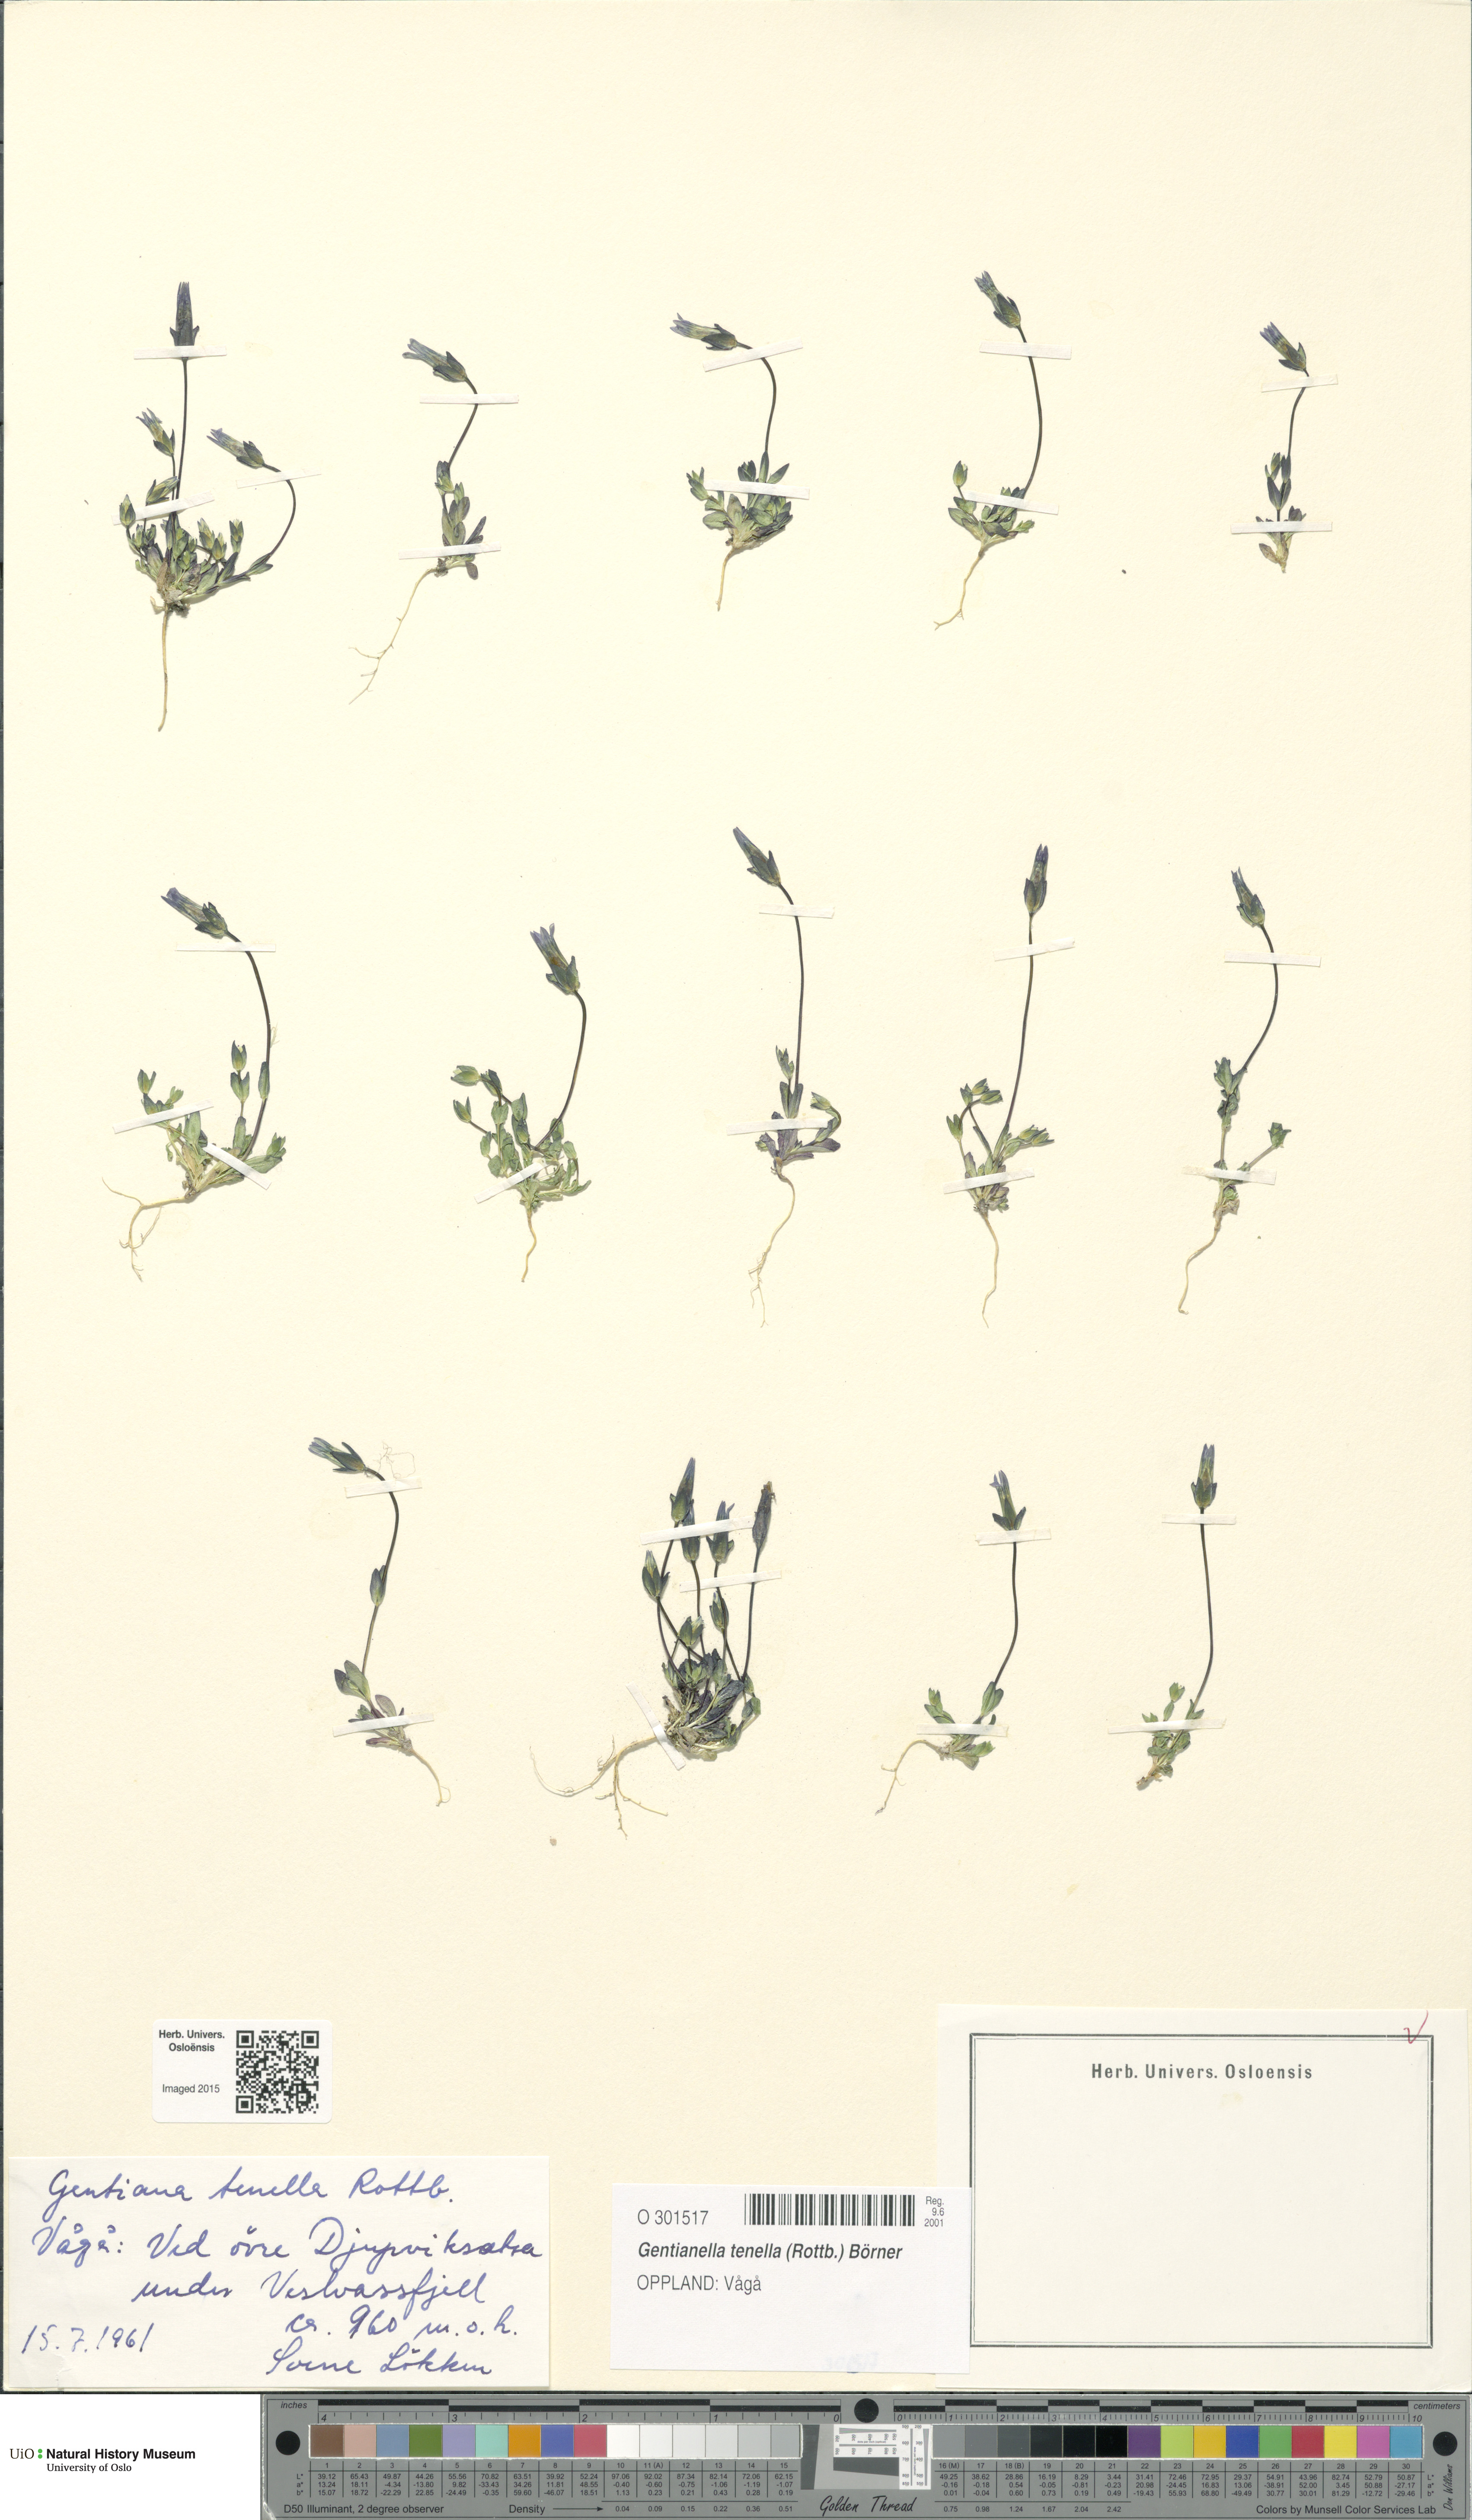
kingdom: Plantae
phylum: Tracheophyta
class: Magnoliopsida
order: Gentianales
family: Gentianaceae
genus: Comastoma
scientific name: Comastoma tenellum
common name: Dane's dwarf gentian
